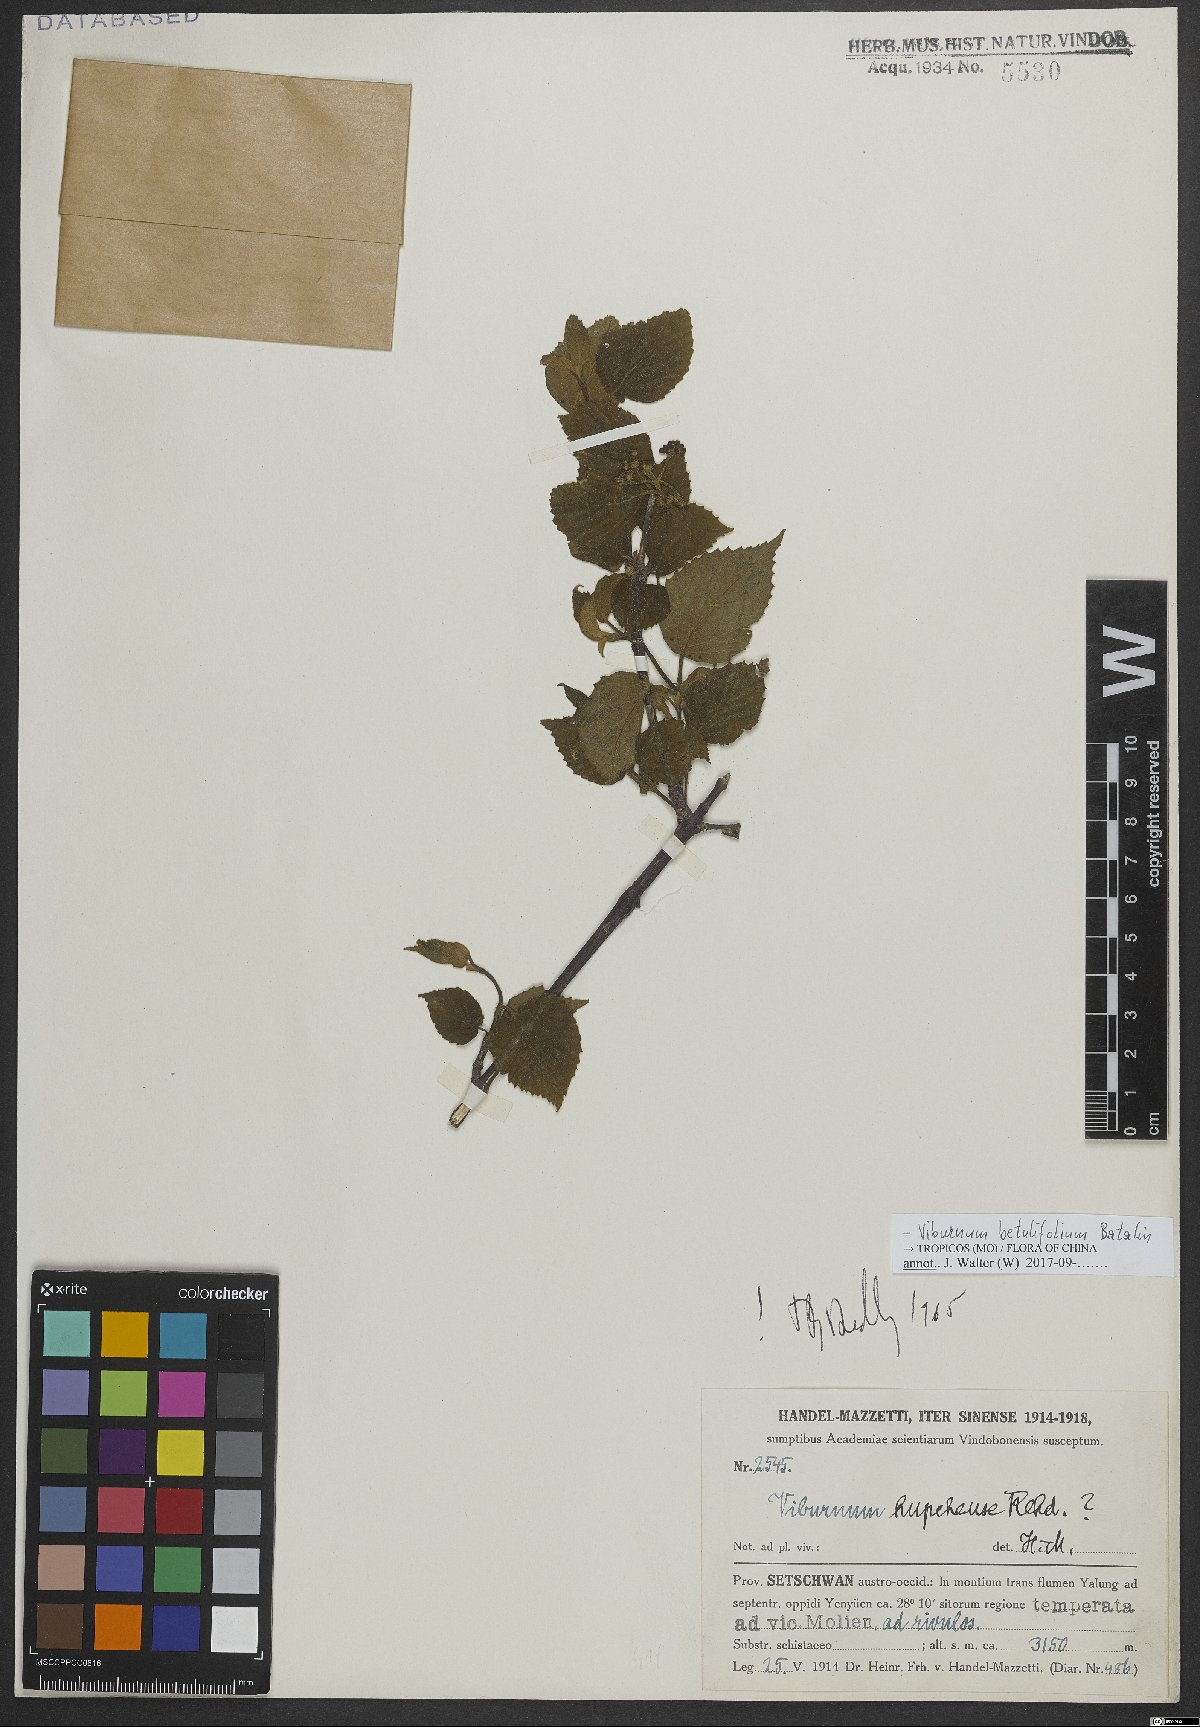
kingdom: Plantae
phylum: Tracheophyta
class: Magnoliopsida
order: Dipsacales
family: Viburnaceae
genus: Viburnum
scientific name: Viburnum betulifolium
